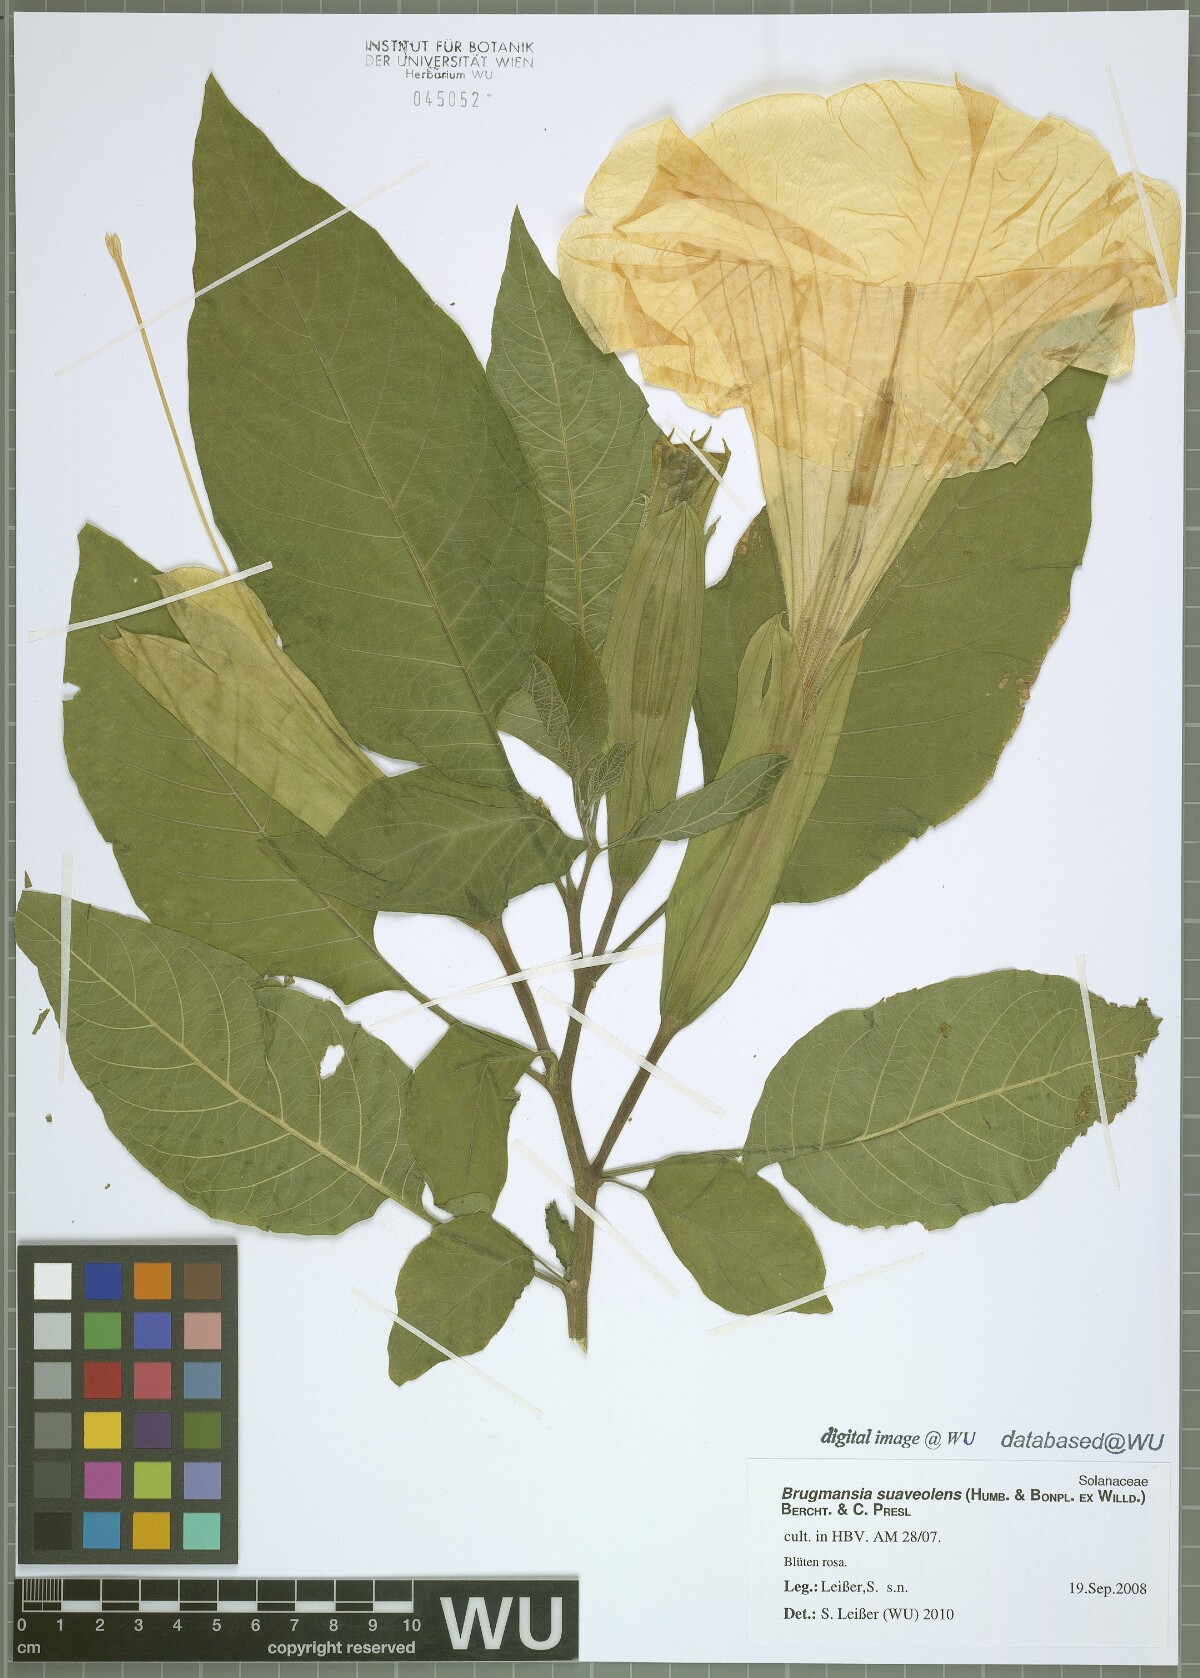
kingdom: Plantae
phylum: Tracheophyta
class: Magnoliopsida
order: Solanales
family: Solanaceae
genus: Brugmansia
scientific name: Brugmansia suaveolens
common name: Angel's tears
